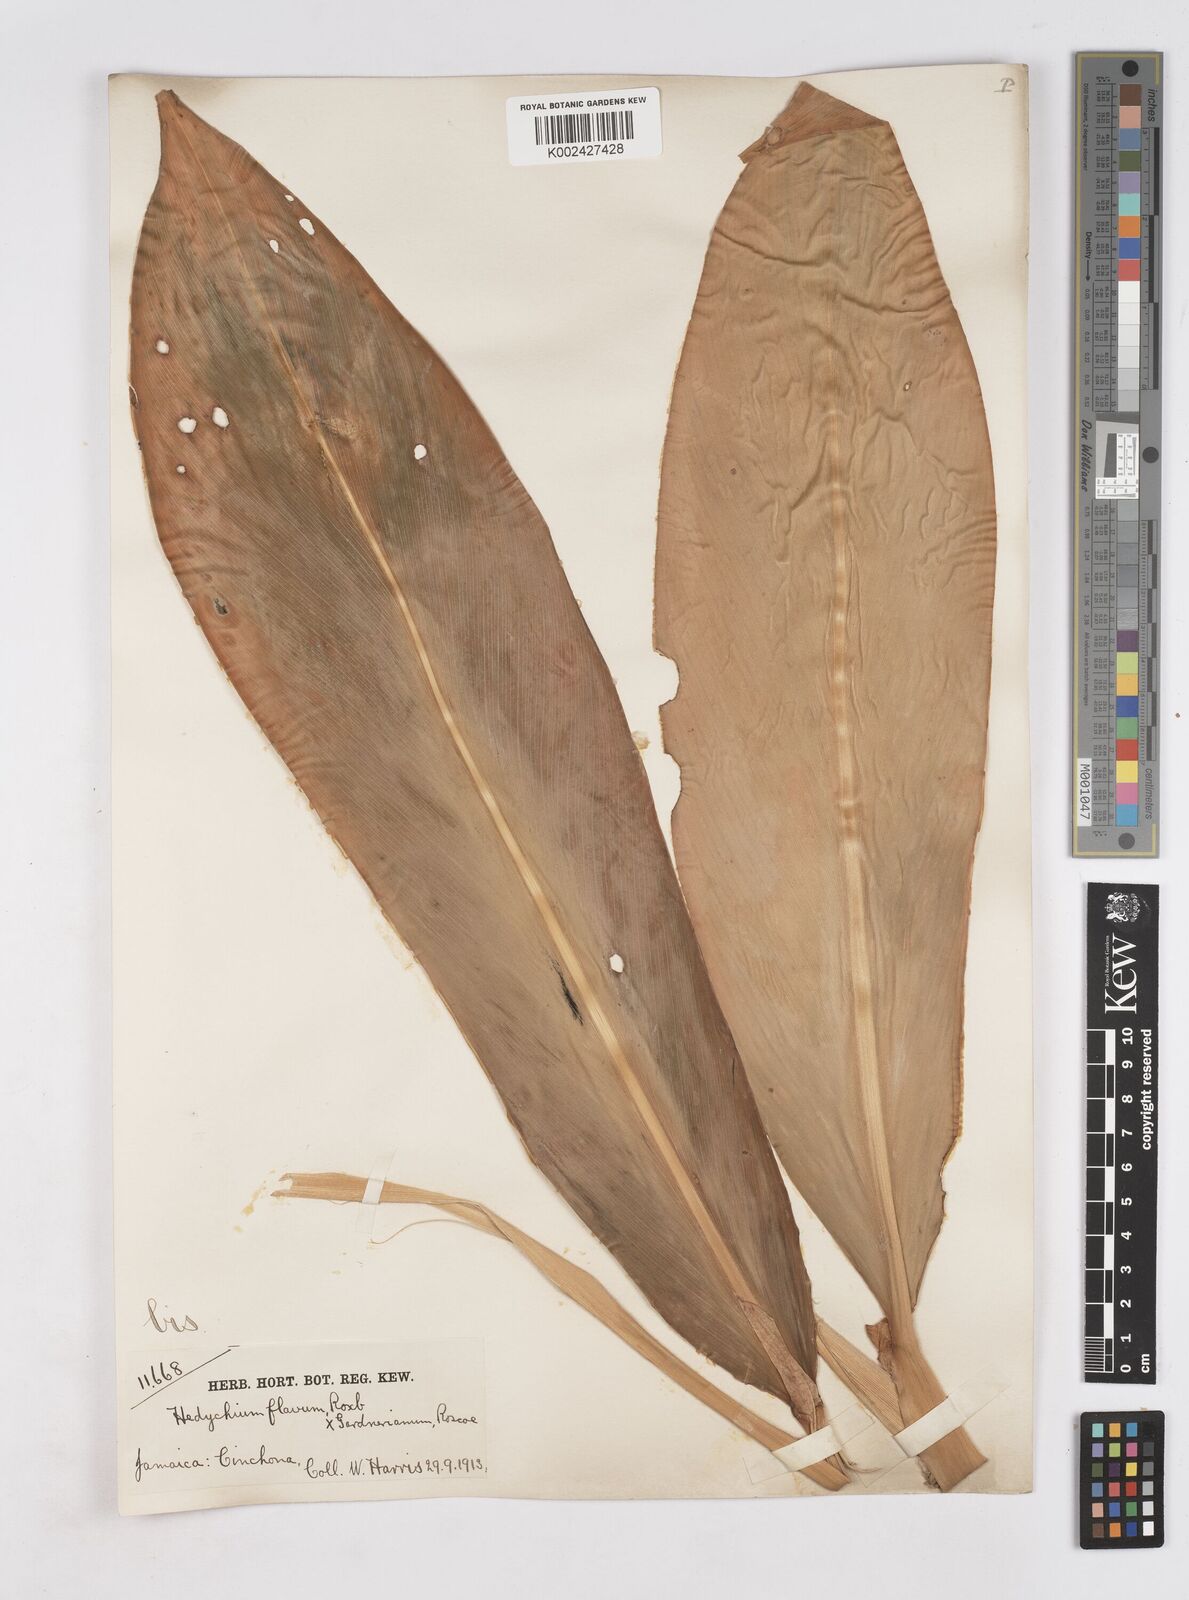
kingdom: Plantae
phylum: Tracheophyta
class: Liliopsida
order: Zingiberales
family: Zingiberaceae
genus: Hedychium
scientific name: Hedychium
